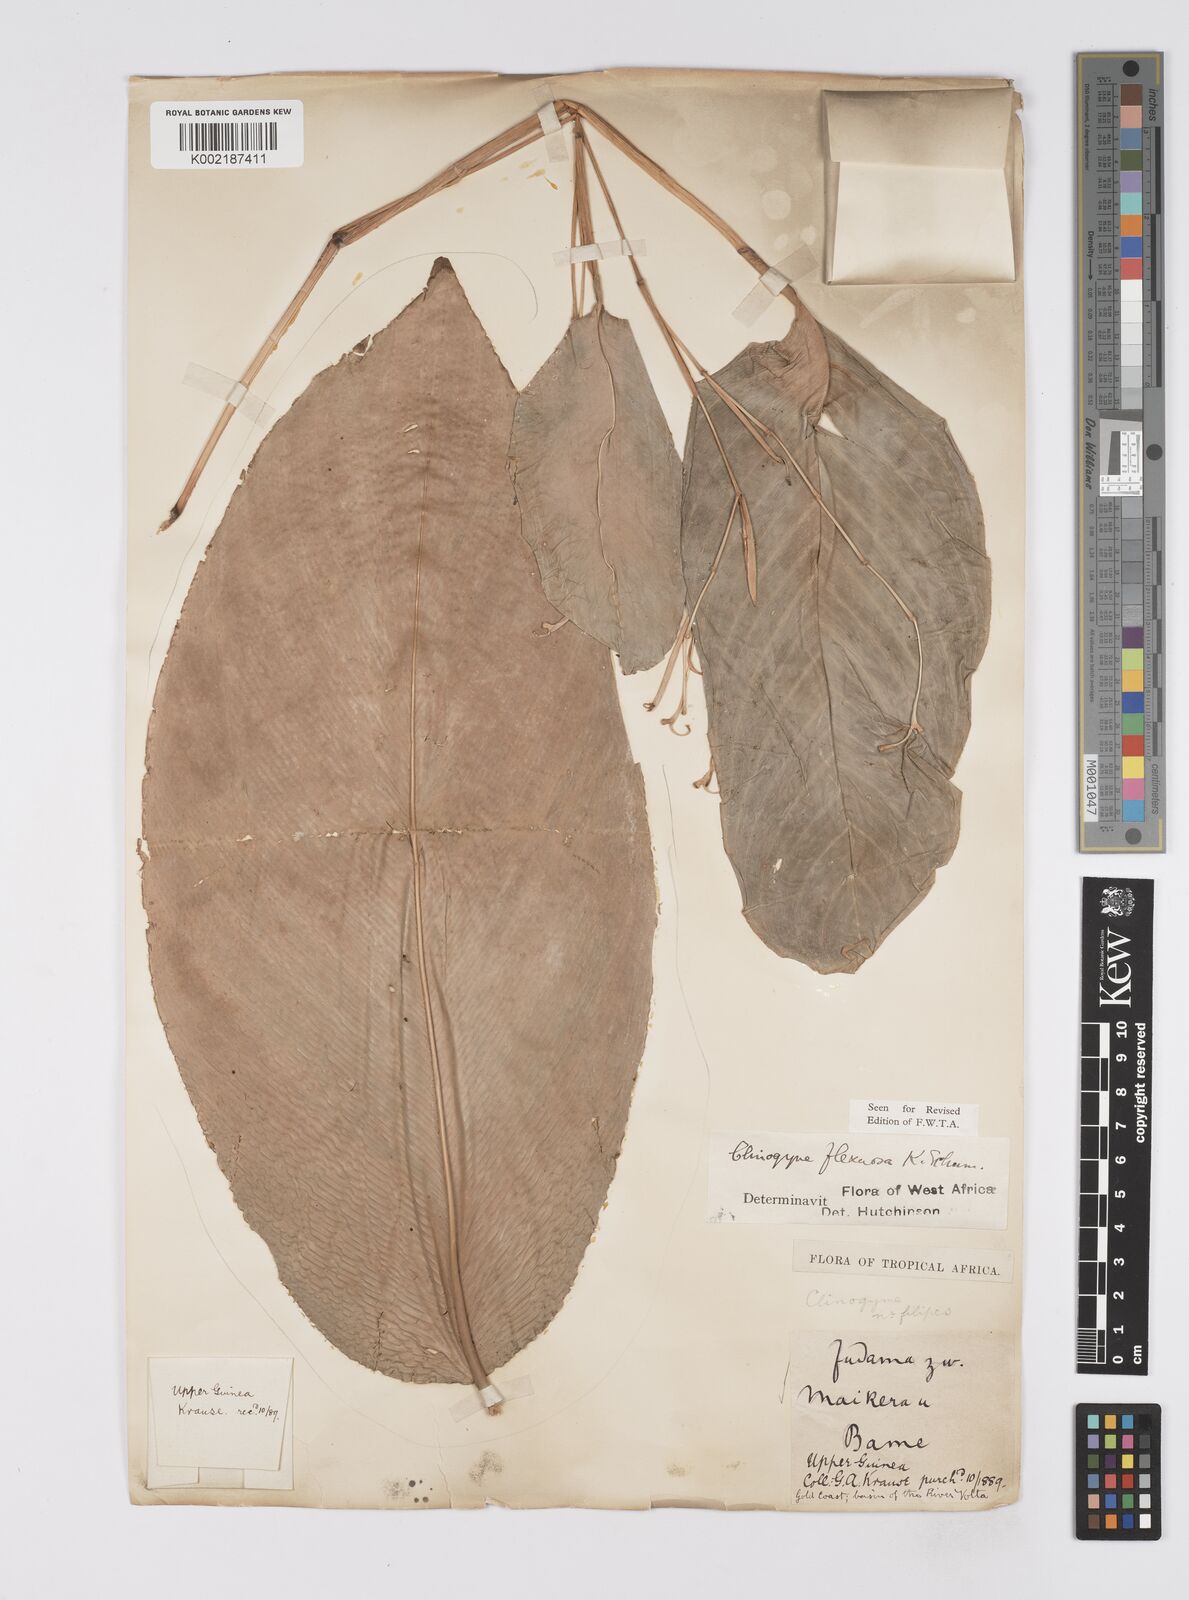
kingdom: Plantae
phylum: Tracheophyta
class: Liliopsida
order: Zingiberales
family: Marantaceae
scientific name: Marantaceae
